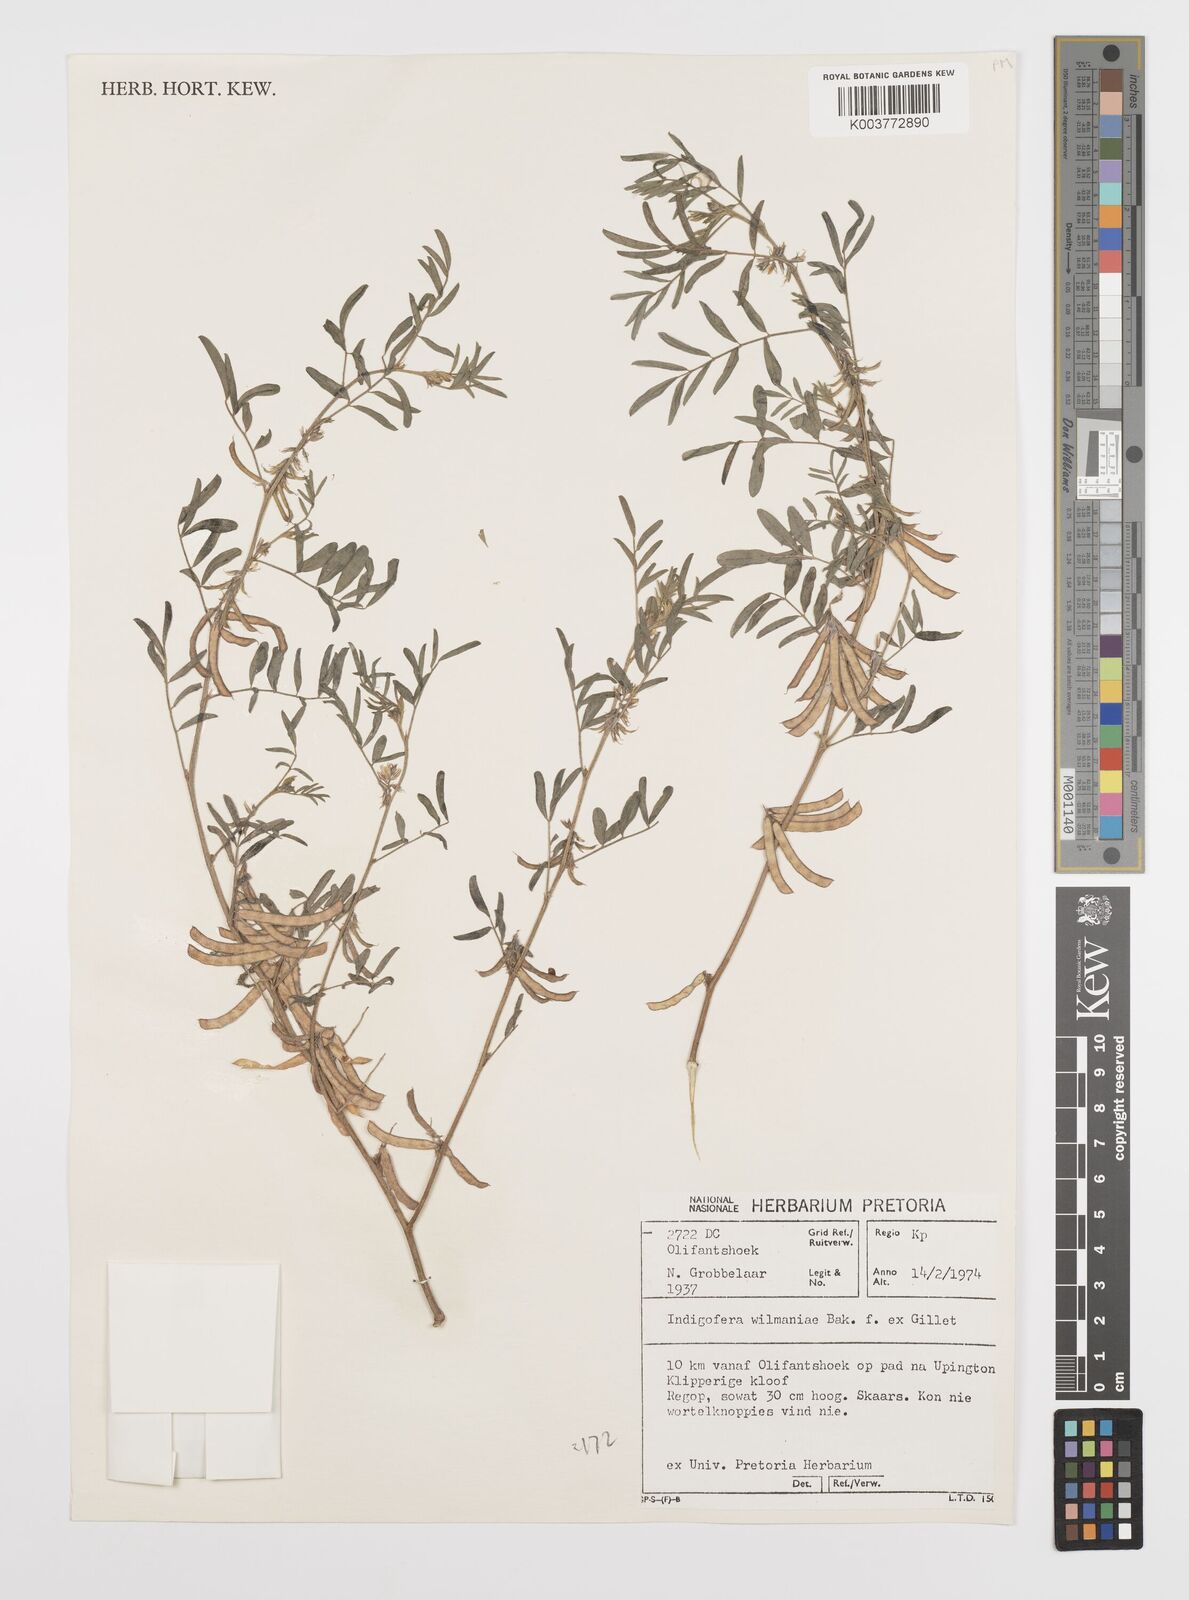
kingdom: Plantae
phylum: Tracheophyta
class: Magnoliopsida
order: Fabales
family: Fabaceae
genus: Indigofera
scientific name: Indigofera damarana
